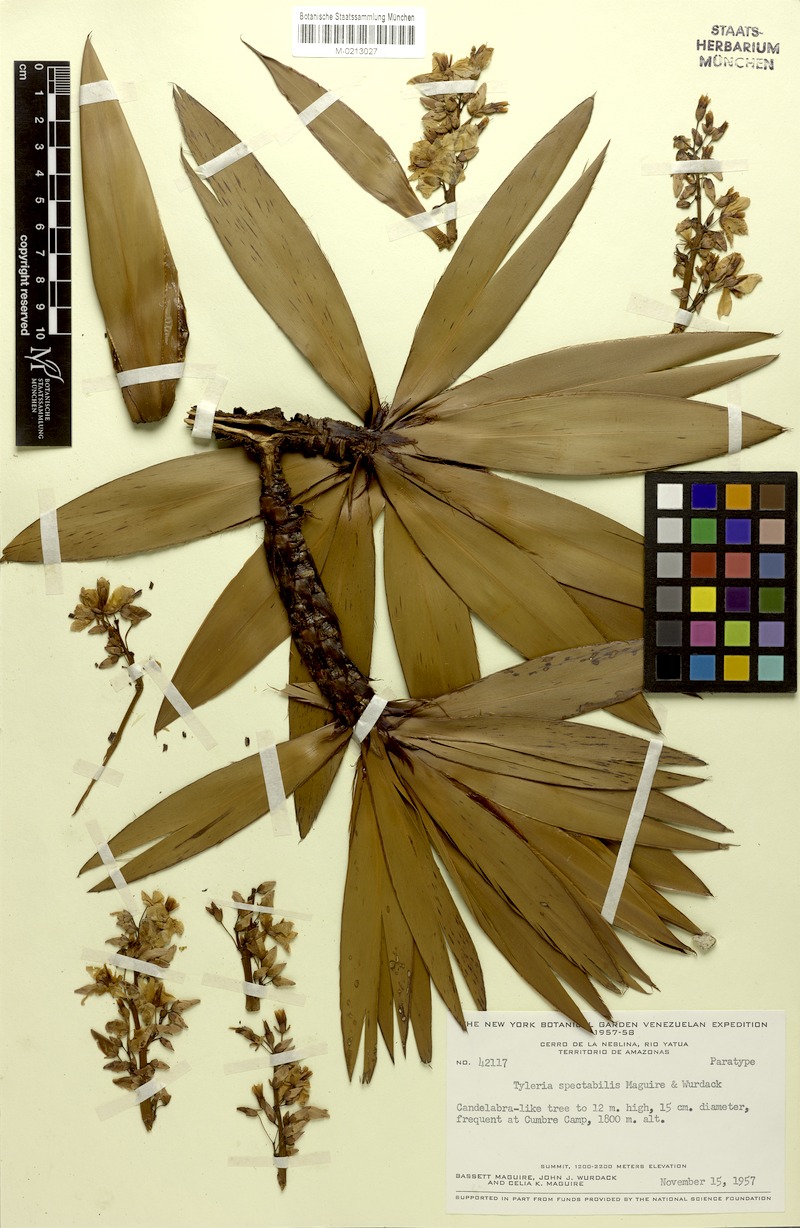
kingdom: Plantae
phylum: Tracheophyta
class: Magnoliopsida
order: Malpighiales
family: Ochnaceae
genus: Tyleria
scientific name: Tyleria spectabilis
